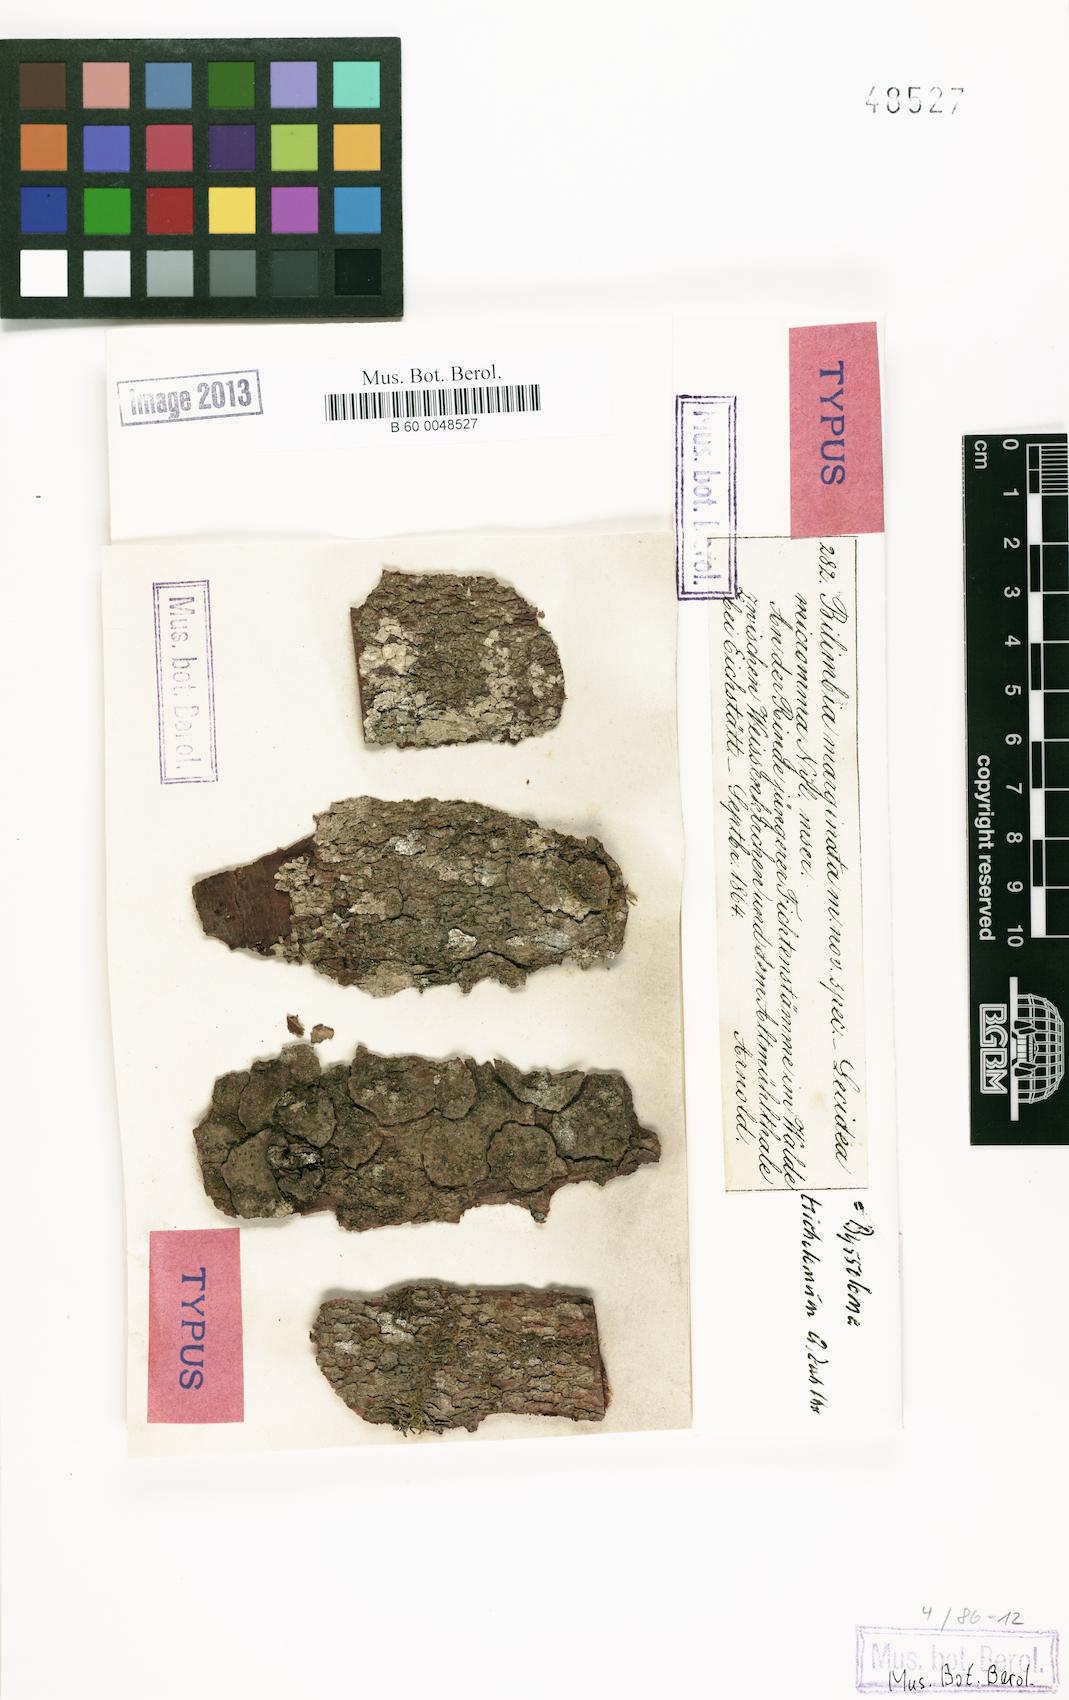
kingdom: Fungi
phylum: Ascomycota
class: Lecanoromycetes
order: Lecanorales
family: Byssolomataceae
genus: Byssoloma
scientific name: Byssoloma marginatum
